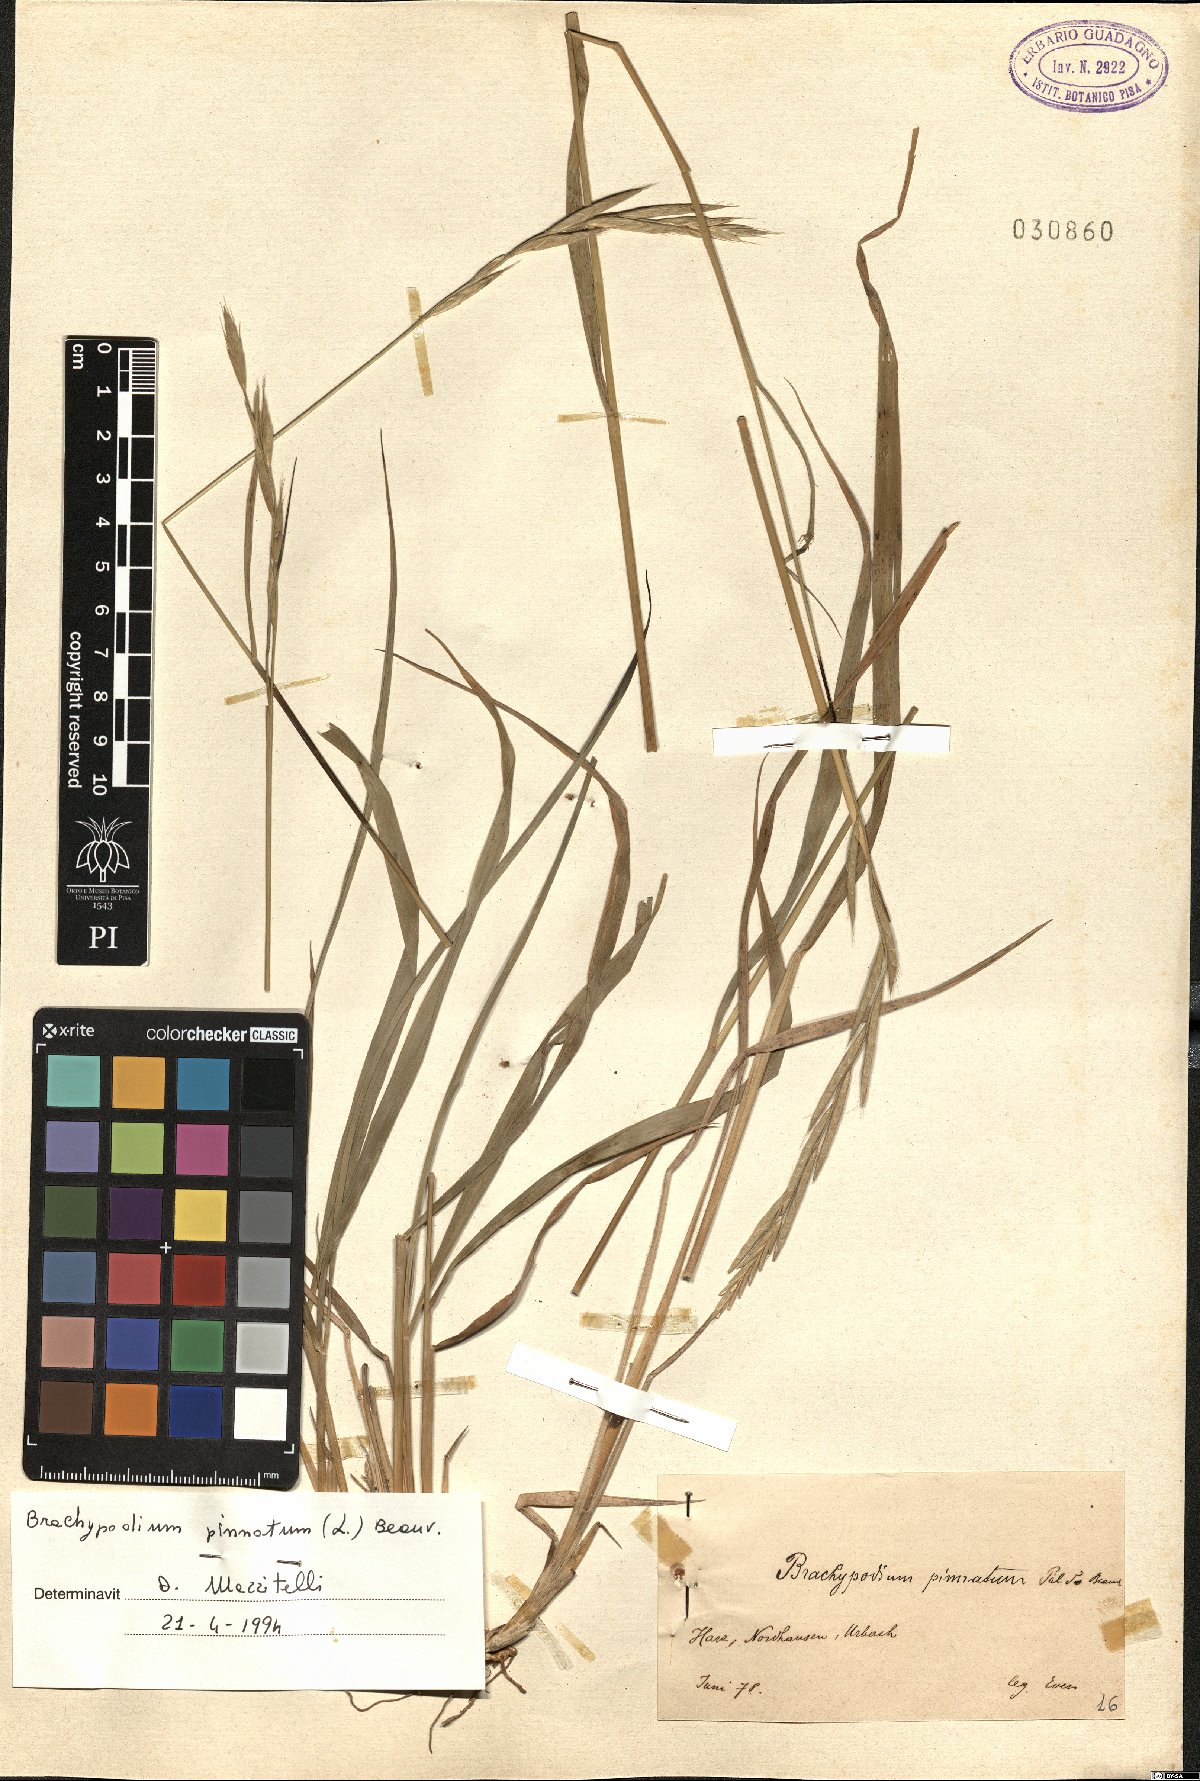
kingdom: Plantae
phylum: Tracheophyta
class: Liliopsida
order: Poales
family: Poaceae
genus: Brachypodium
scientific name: Brachypodium pinnatum
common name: Tor grass
